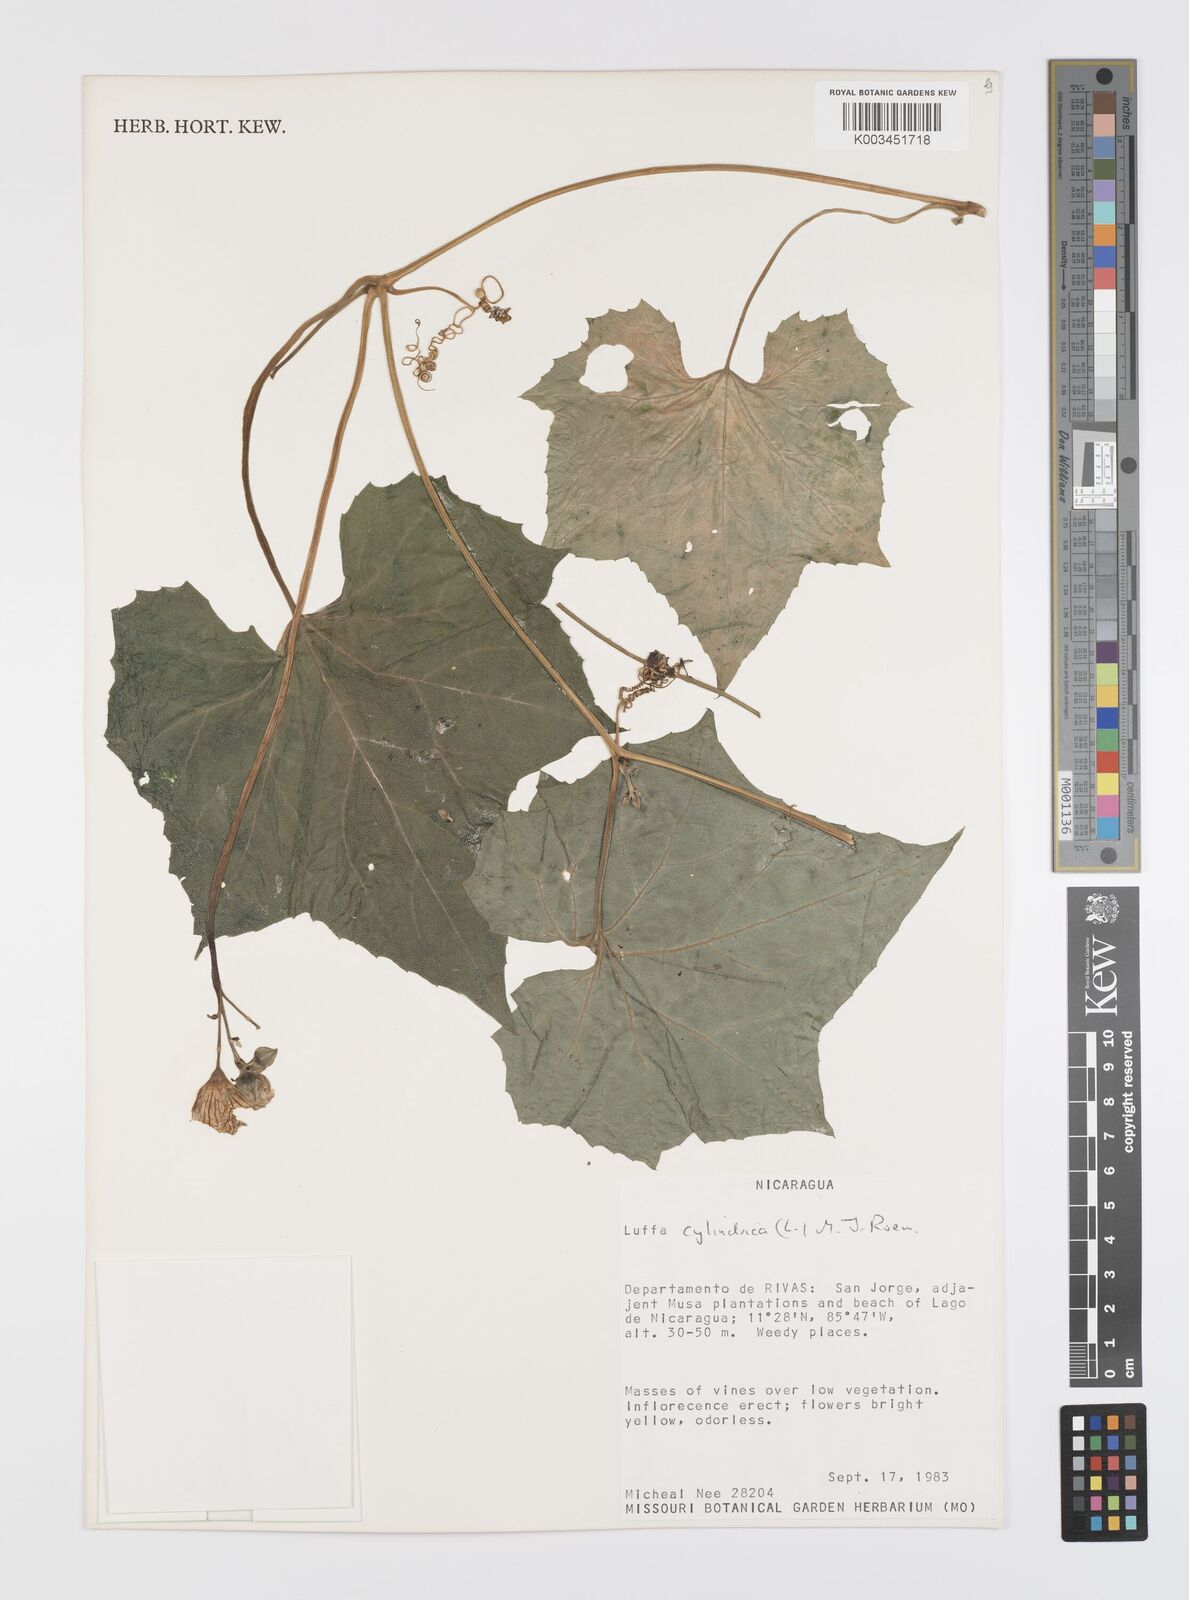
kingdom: Plantae
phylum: Tracheophyta
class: Magnoliopsida
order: Cucurbitales
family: Cucurbitaceae
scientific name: Cucurbitaceae
